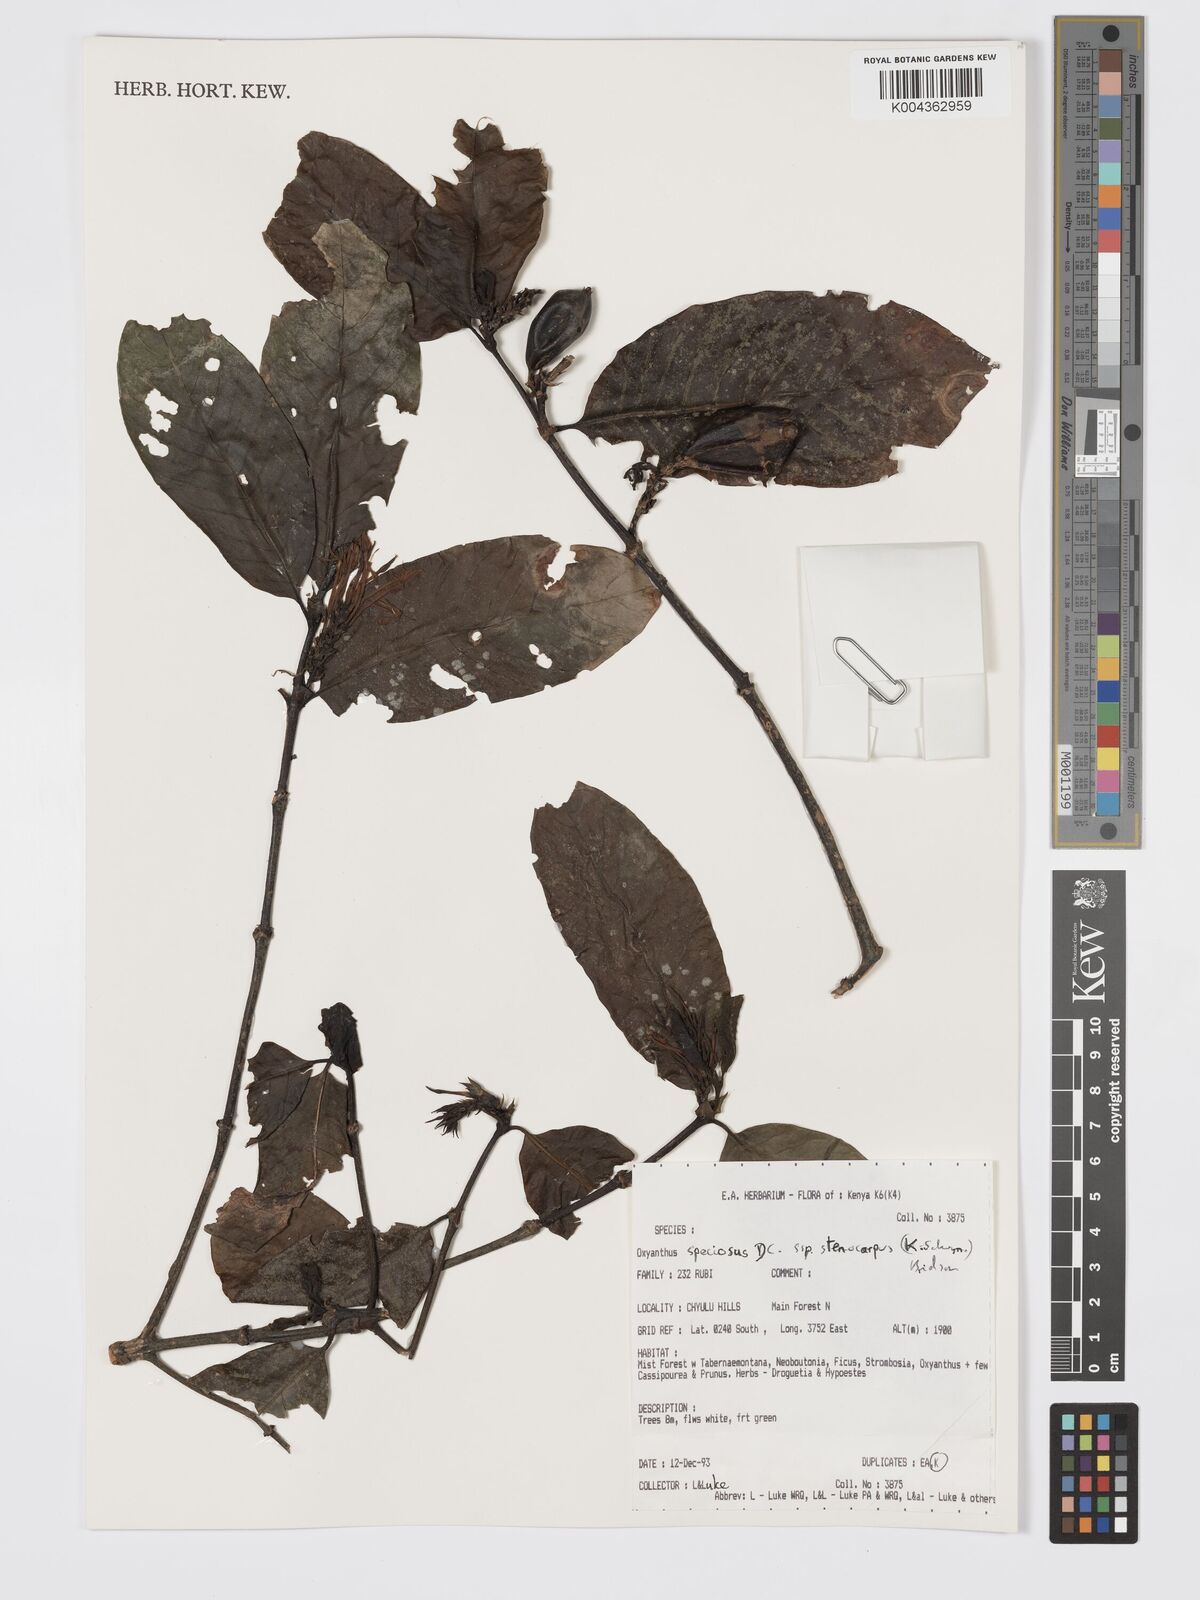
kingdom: Plantae
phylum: Tracheophyta
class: Magnoliopsida
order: Gentianales
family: Rubiaceae
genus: Oxyanthus
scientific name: Oxyanthus speciosus
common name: Whipstick loquat
